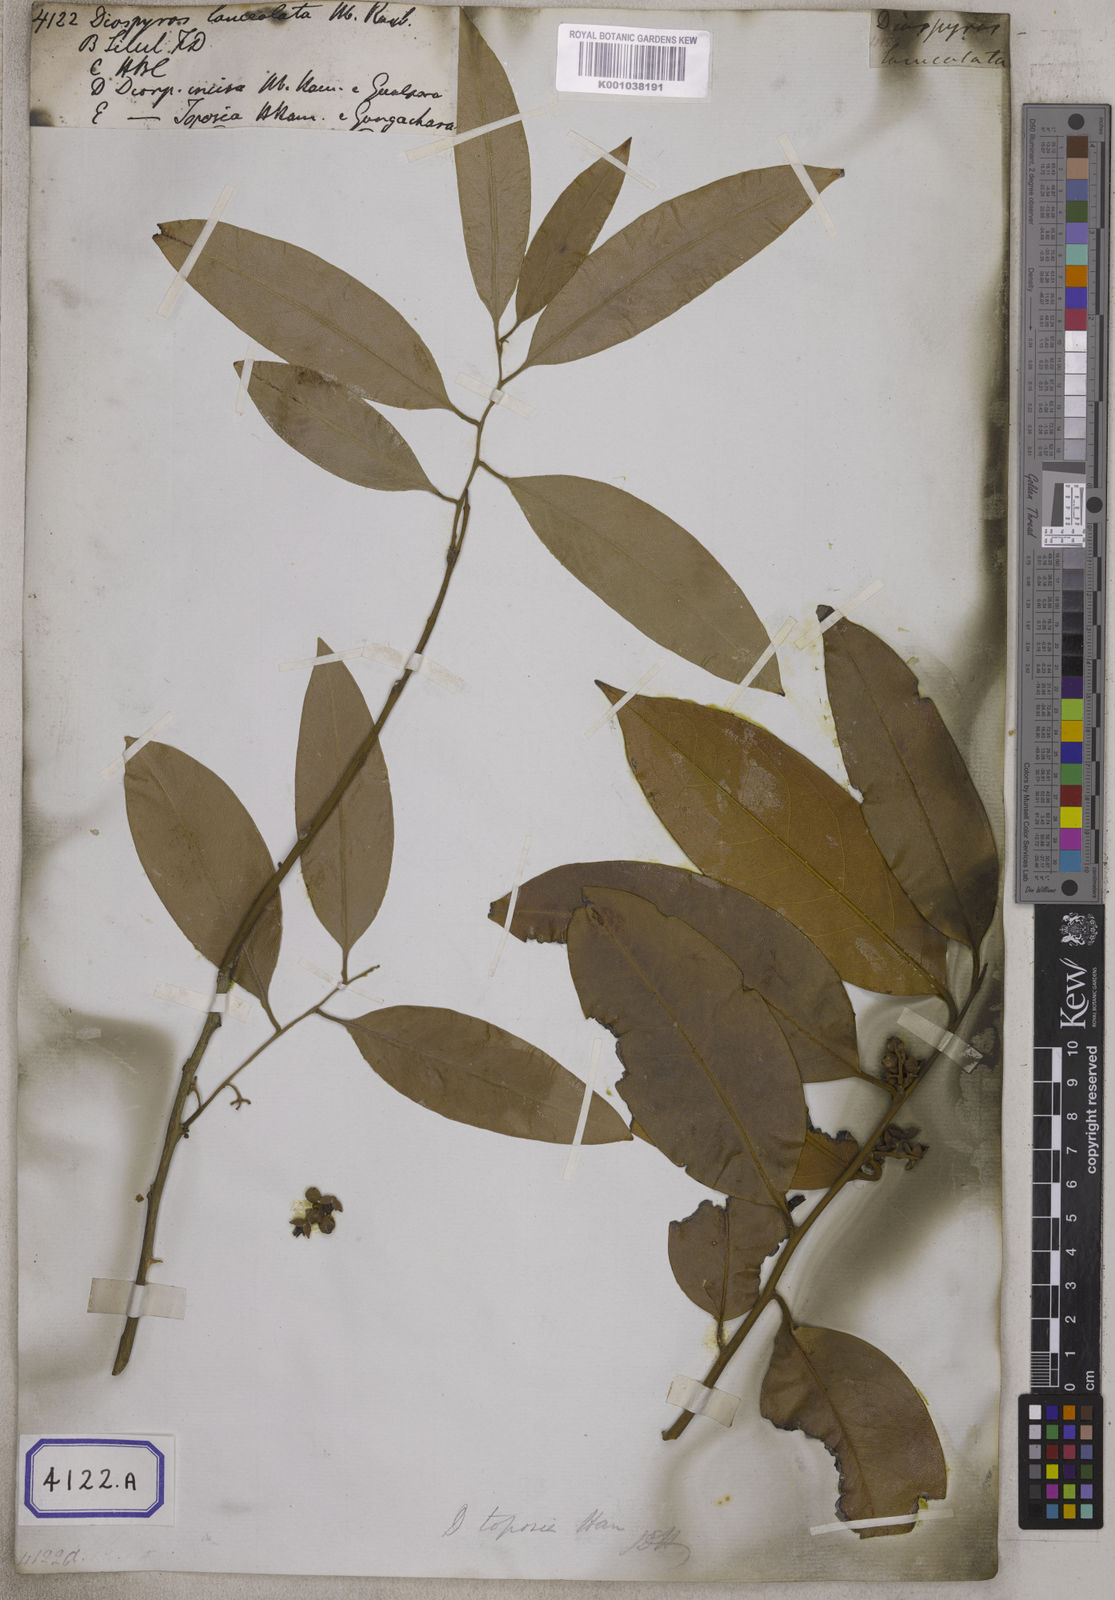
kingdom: Plantae
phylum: Tracheophyta
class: Magnoliopsida
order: Ericales
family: Ebenaceae
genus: Diospyros
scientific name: Diospyros
